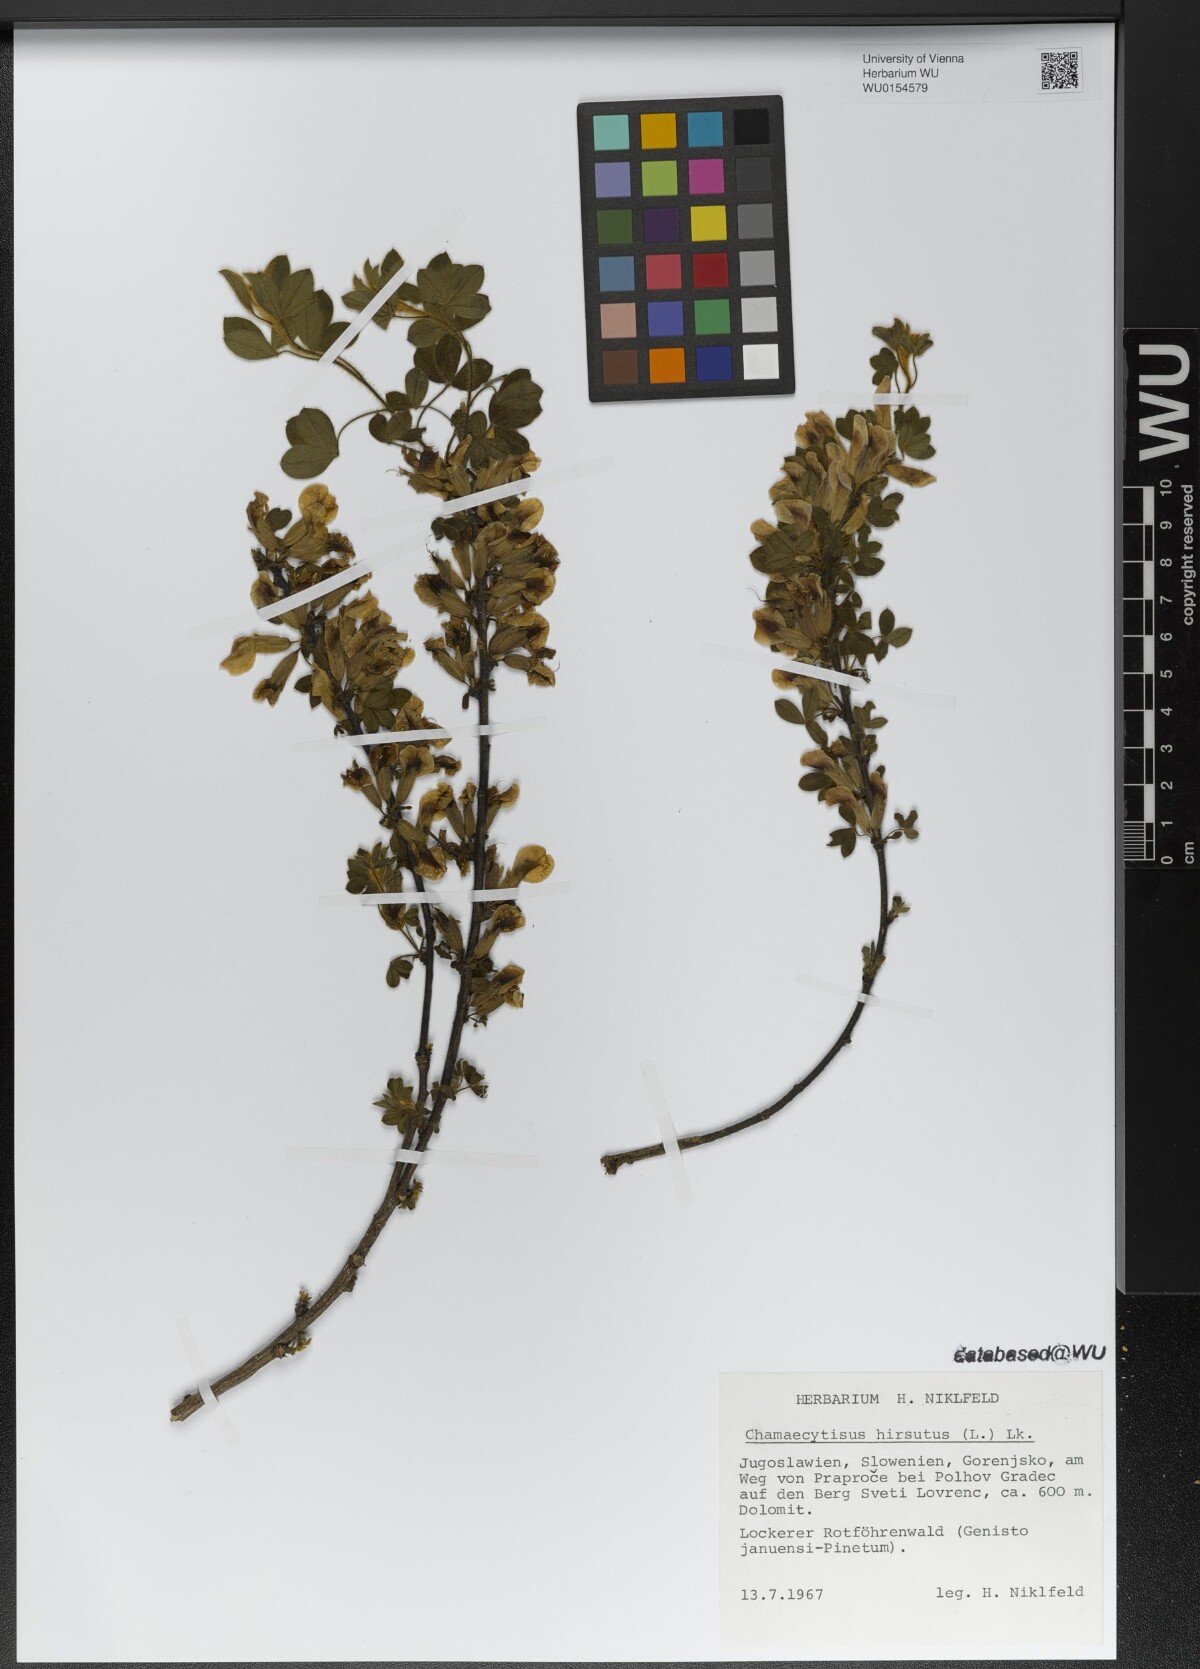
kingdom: Plantae
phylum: Tracheophyta
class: Magnoliopsida
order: Fabales
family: Fabaceae
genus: Chamaecytisus
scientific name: Chamaecytisus hirsutus
